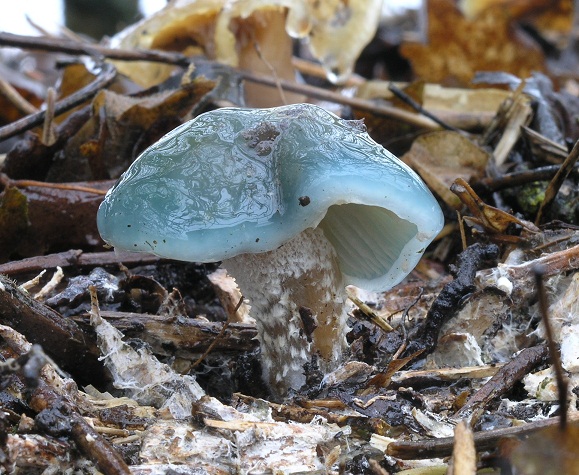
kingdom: Fungi
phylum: Basidiomycota
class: Agaricomycetes
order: Agaricales
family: Strophariaceae
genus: Stropharia
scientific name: Stropharia cyanea
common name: blågrøn bredblad
